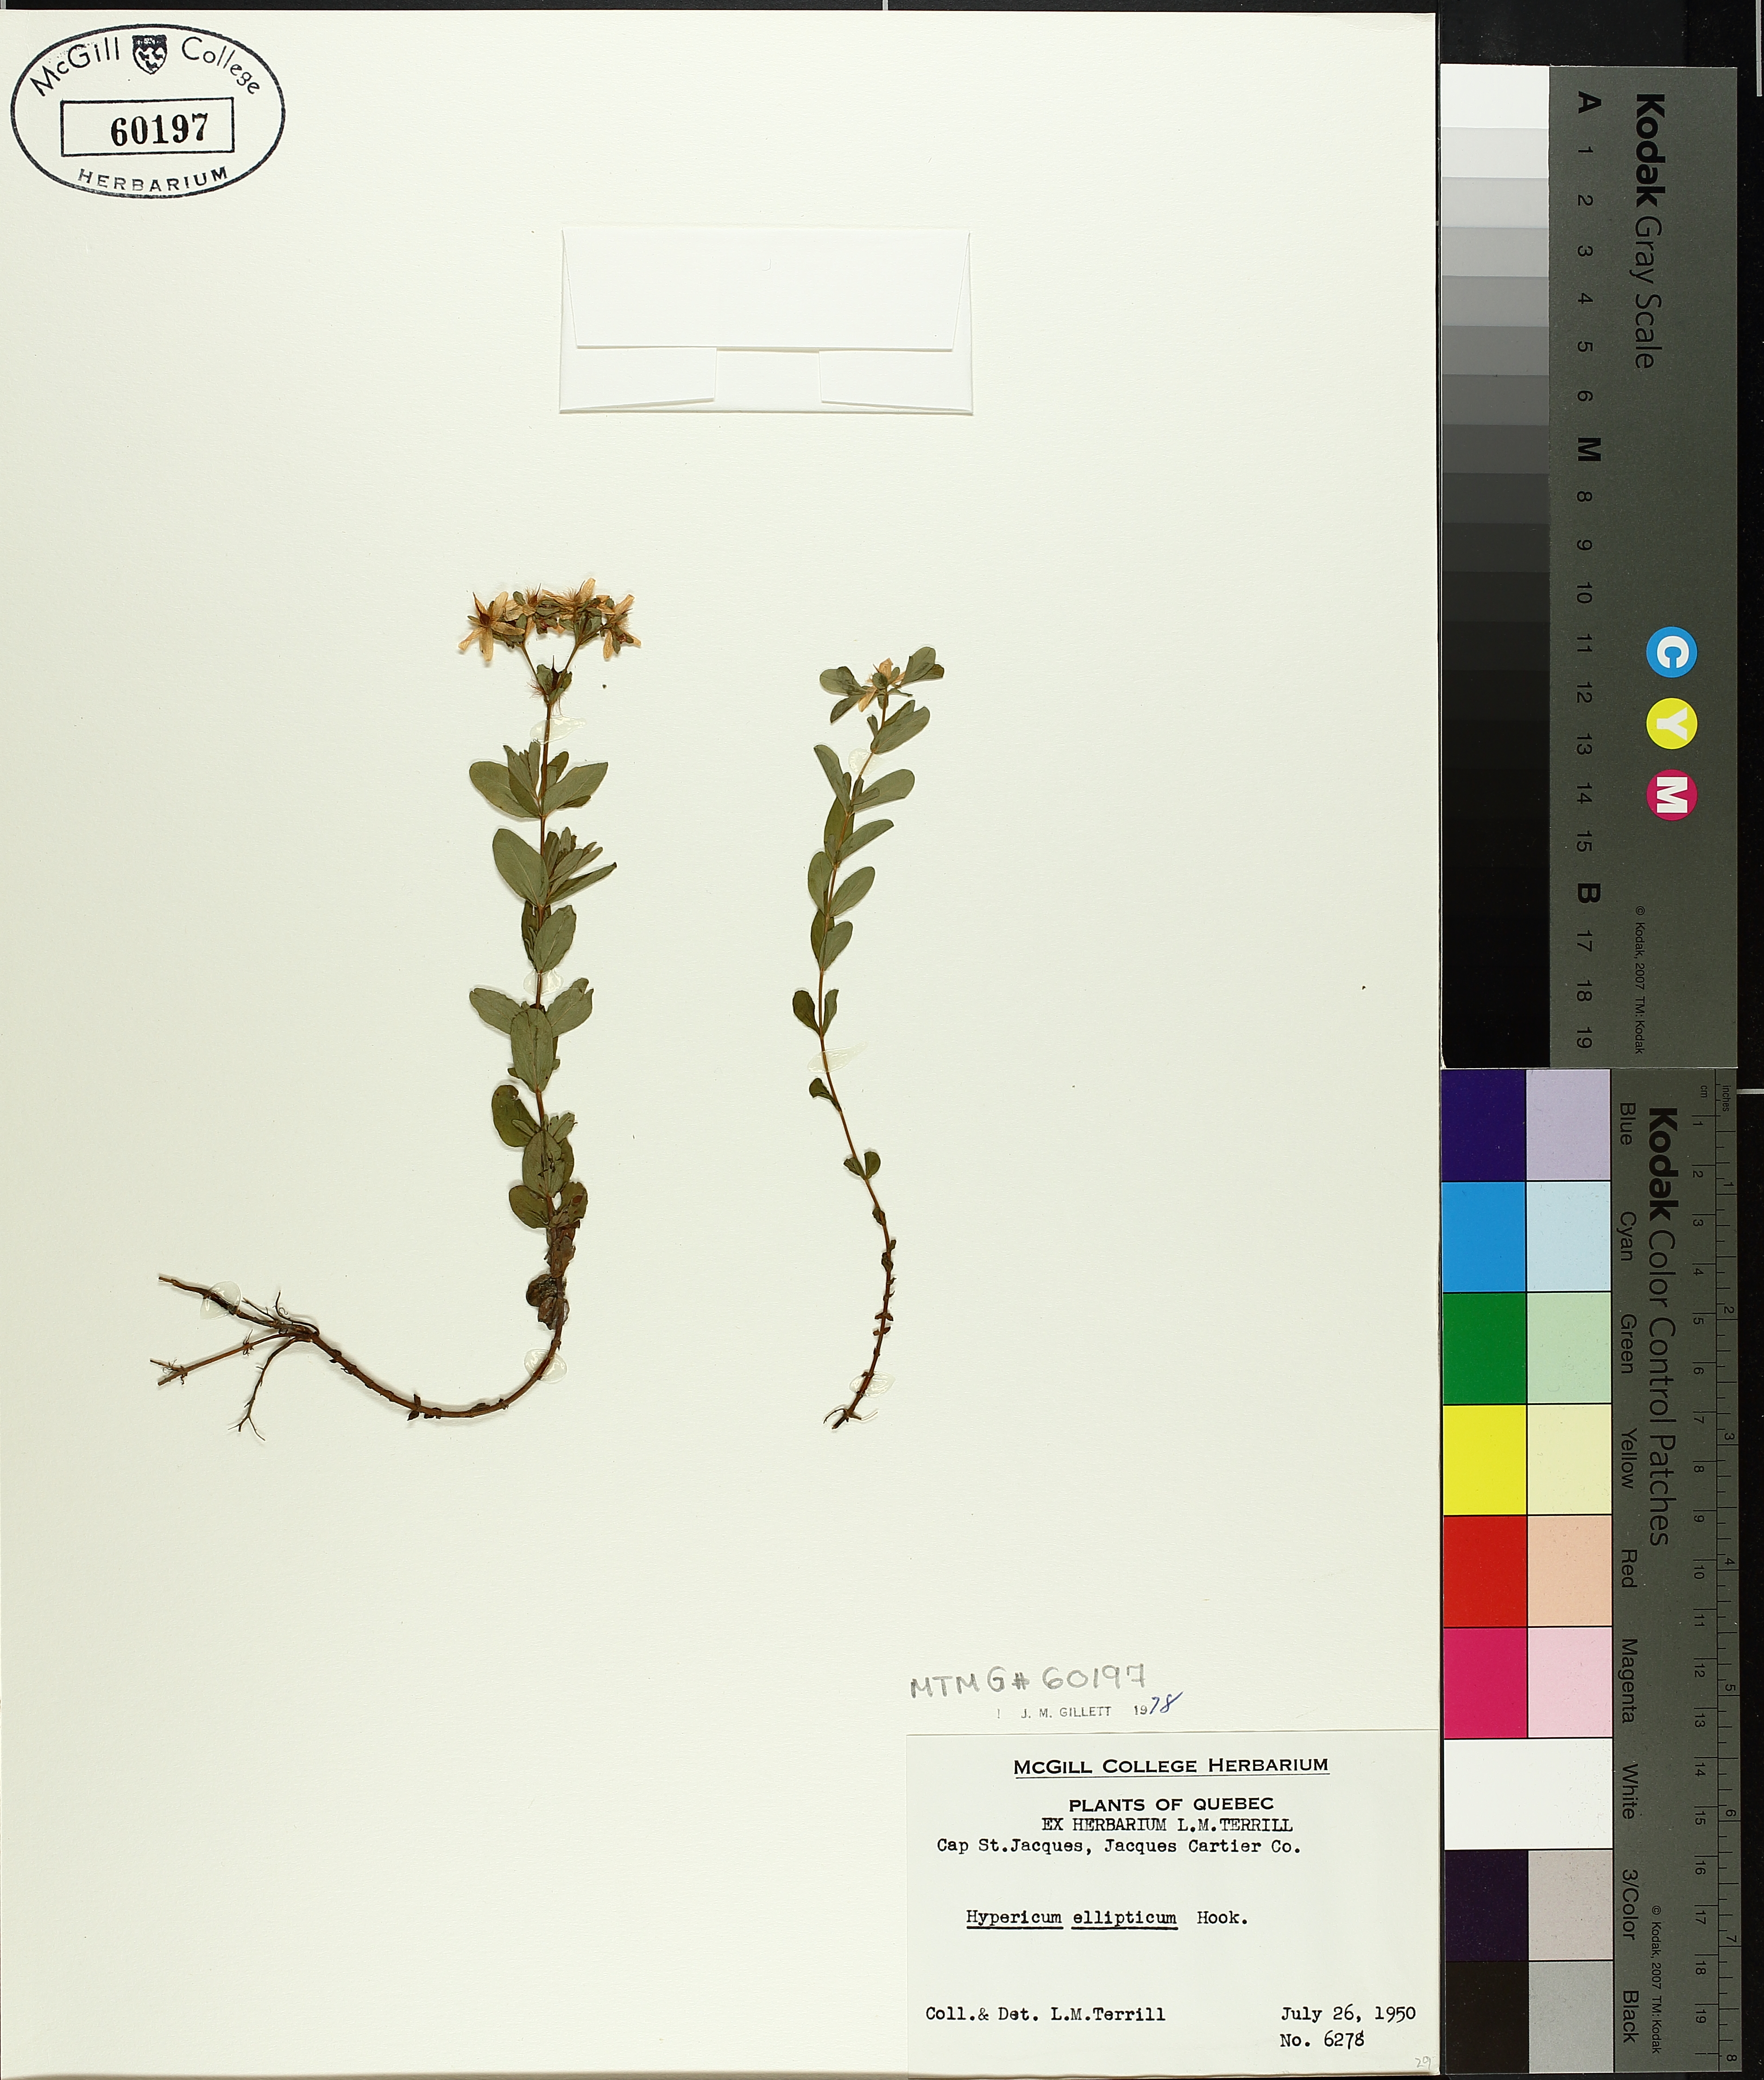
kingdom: Plantae
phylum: Tracheophyta
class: Magnoliopsida
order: Malpighiales
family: Hypericaceae
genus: Hypericum
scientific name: Hypericum ellipticum
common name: Elliptic st. john's-wort
